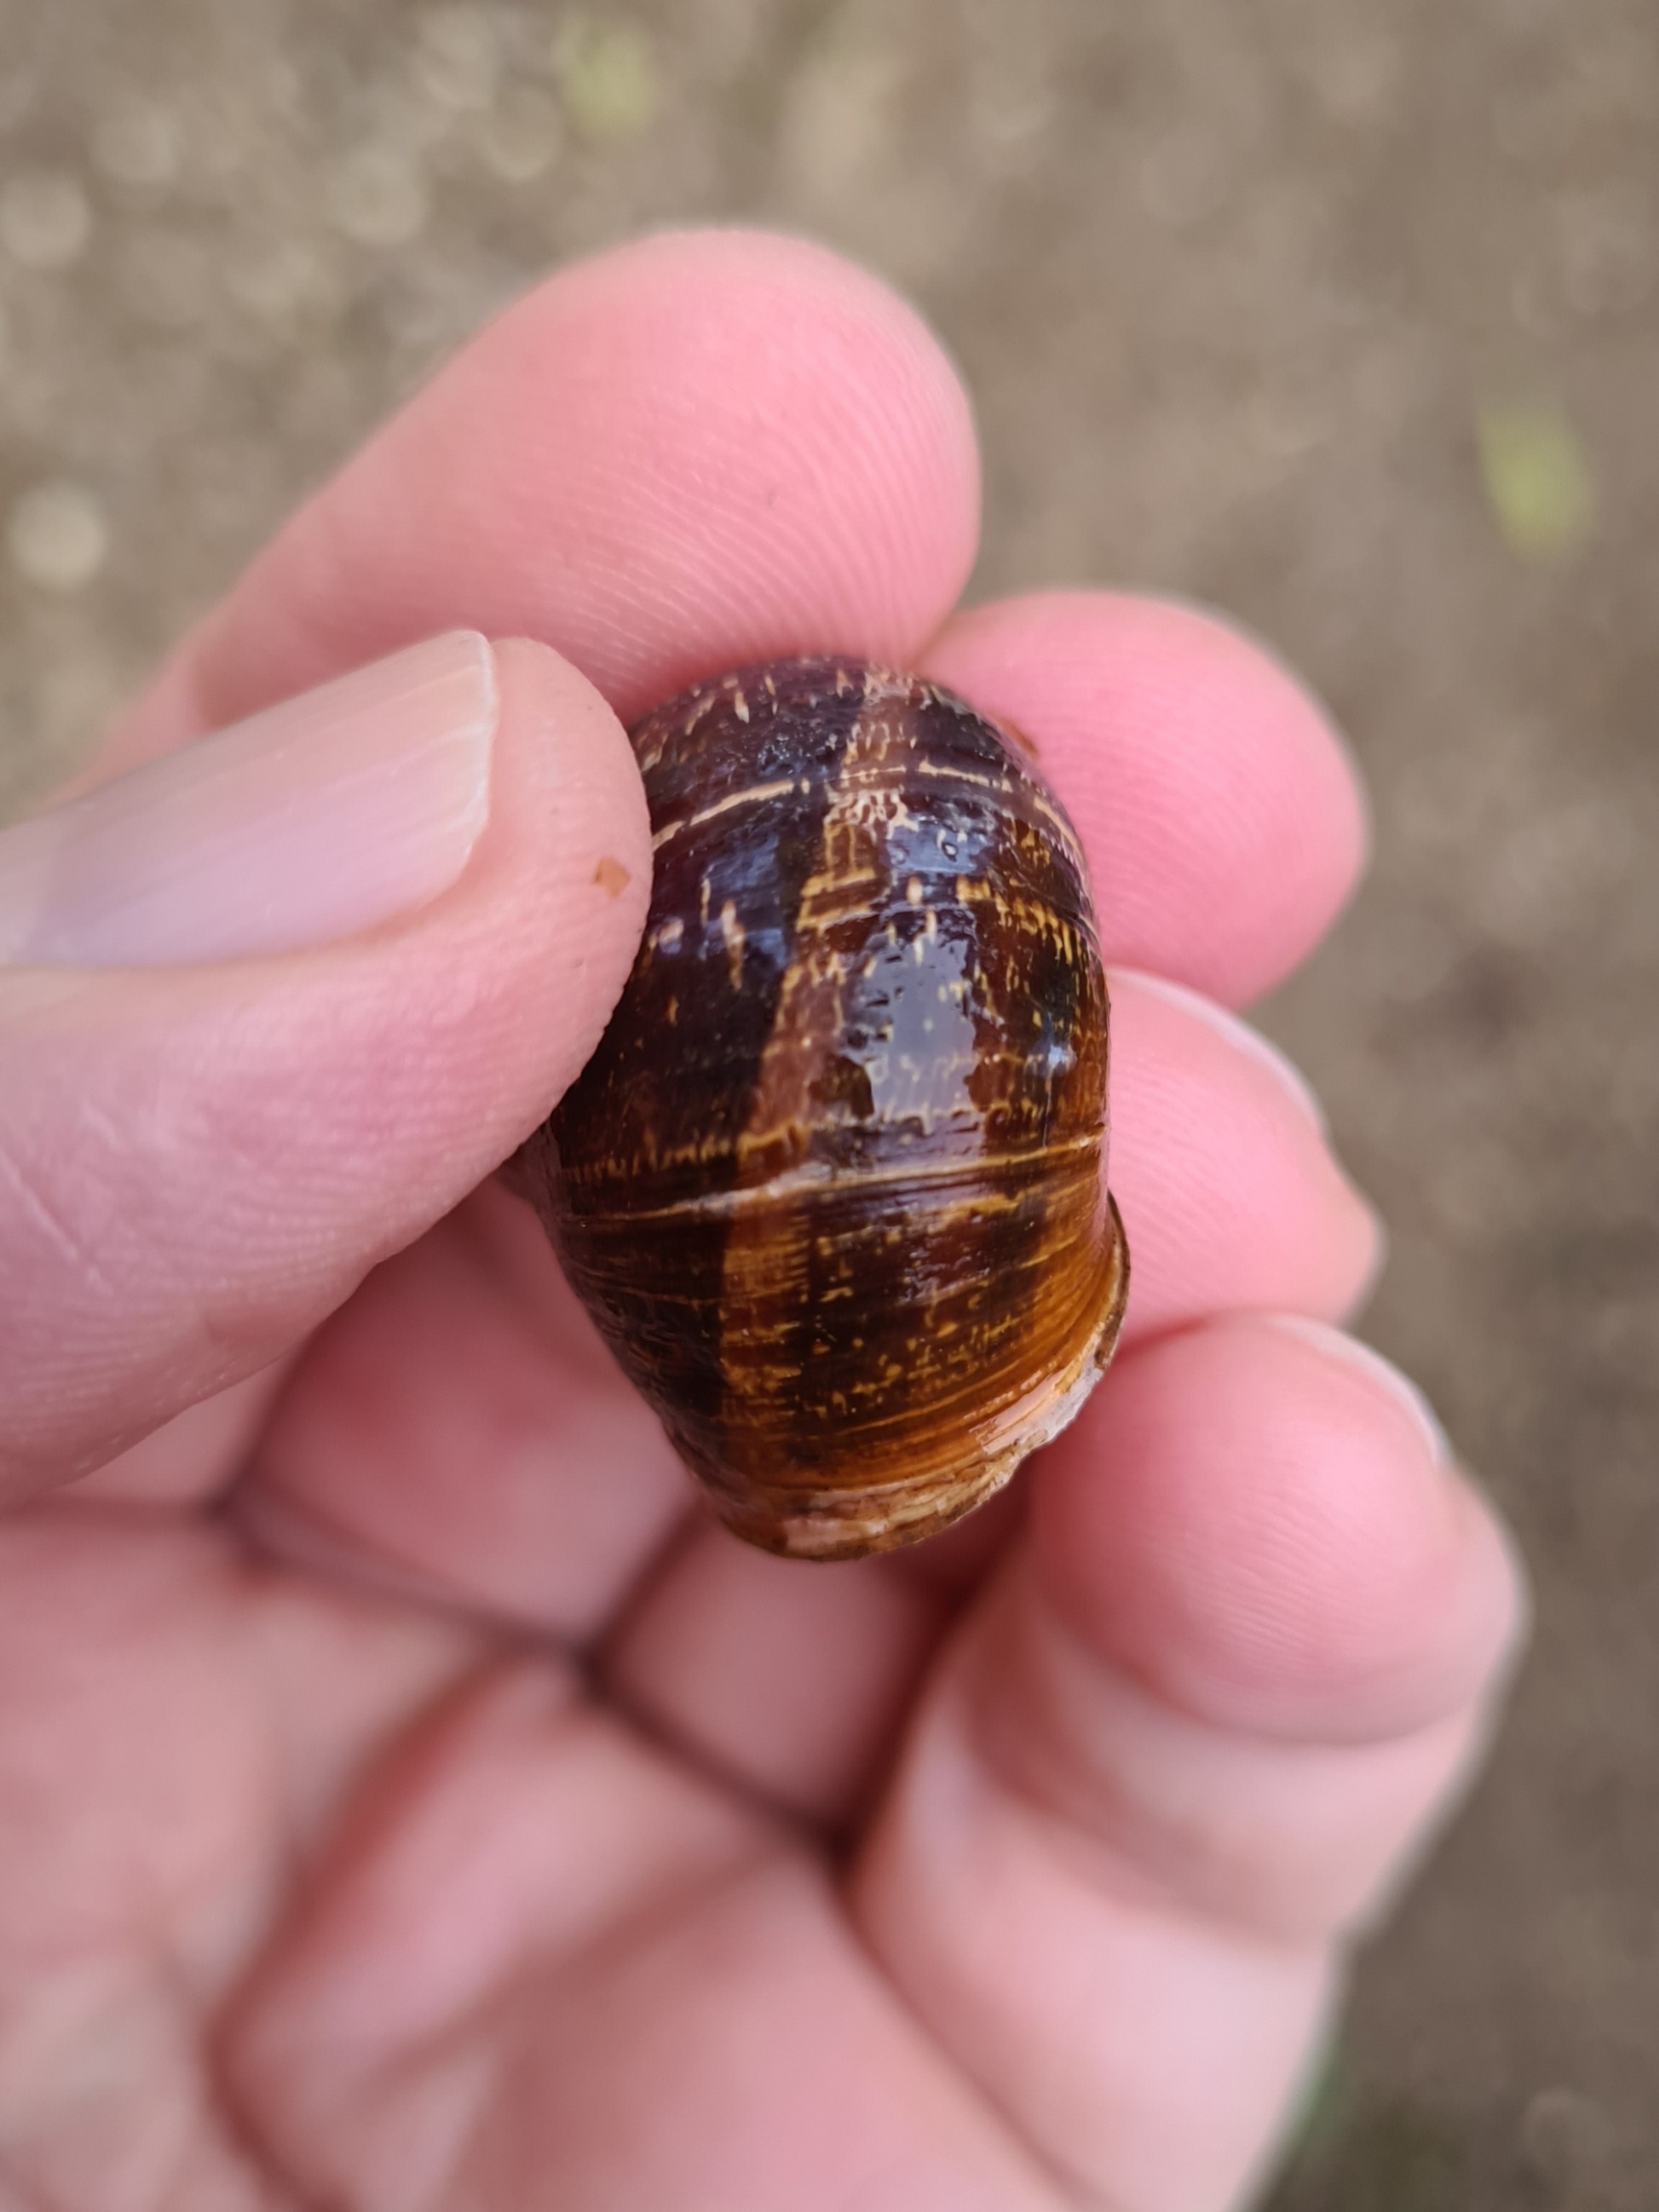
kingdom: Animalia
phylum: Mollusca
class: Gastropoda
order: Stylommatophora
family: Helicidae
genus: Cornu
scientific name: Cornu aspersum
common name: Plettet voldsnegl
